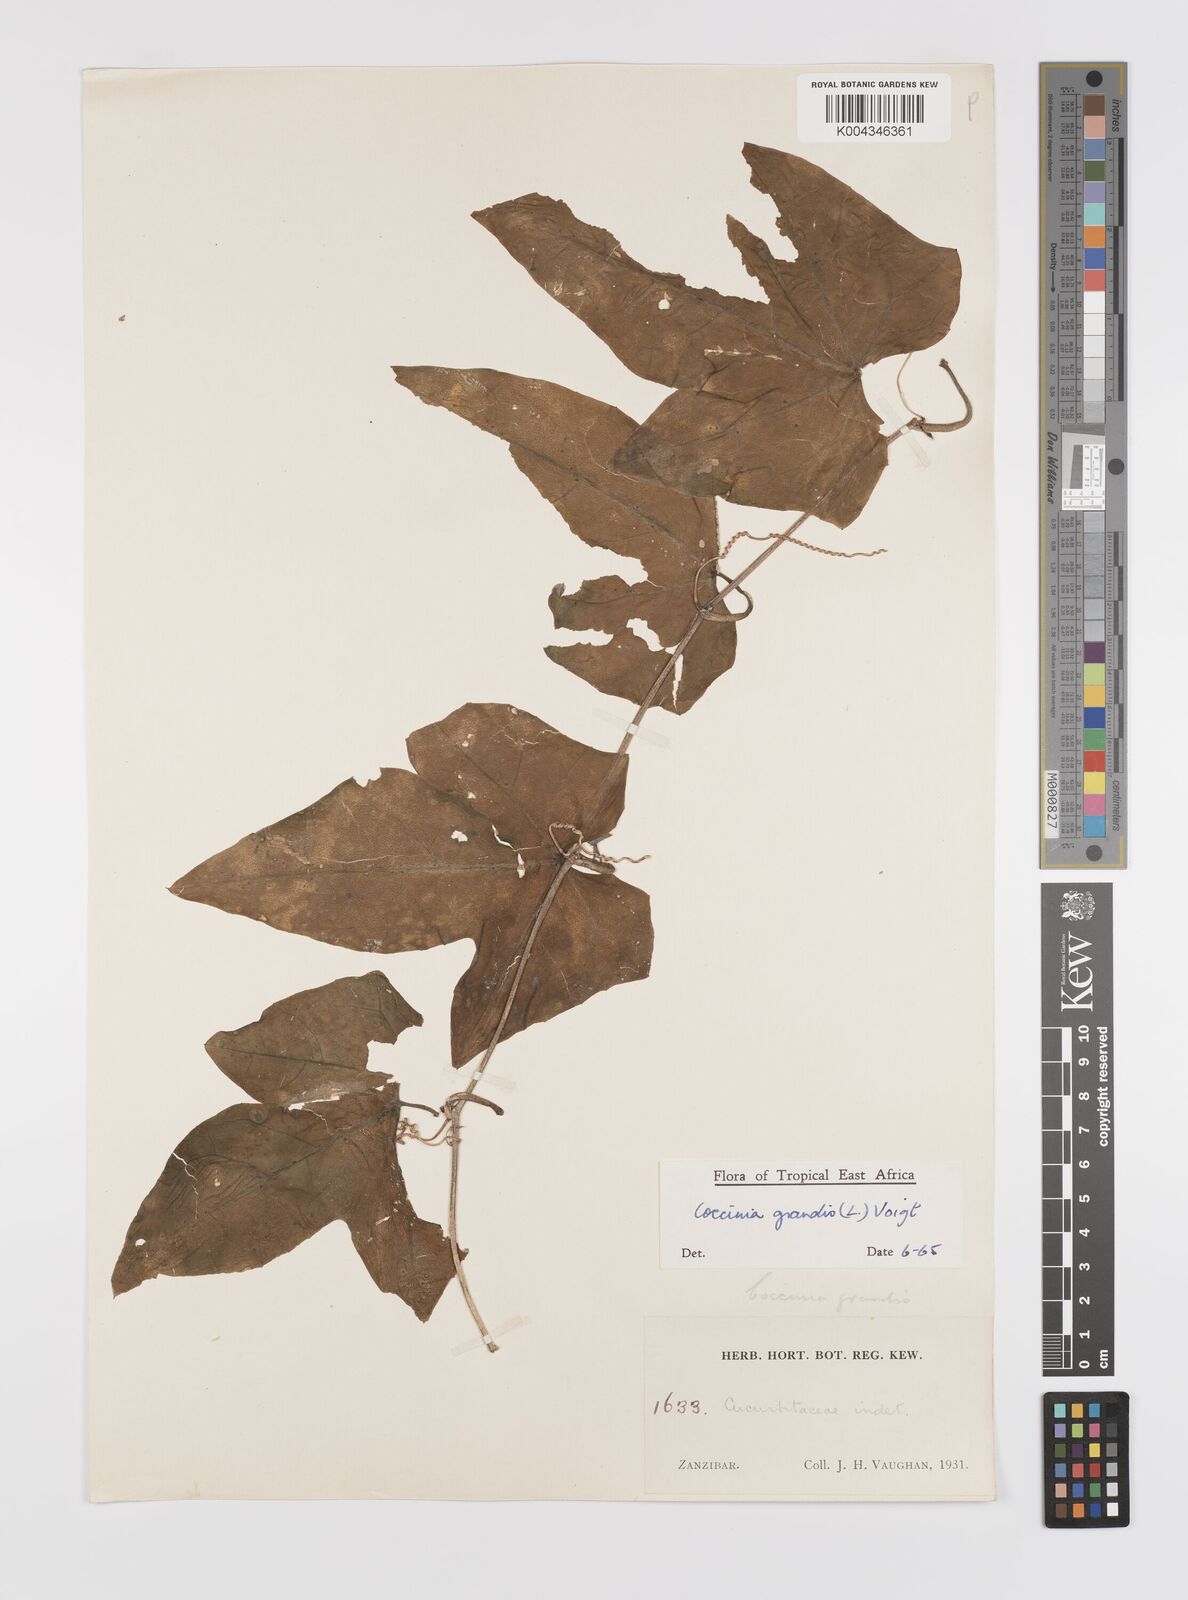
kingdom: Plantae
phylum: Tracheophyta
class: Magnoliopsida
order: Cucurbitales
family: Cucurbitaceae
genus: Coccinia
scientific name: Coccinia grandis
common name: Ivy gourd
